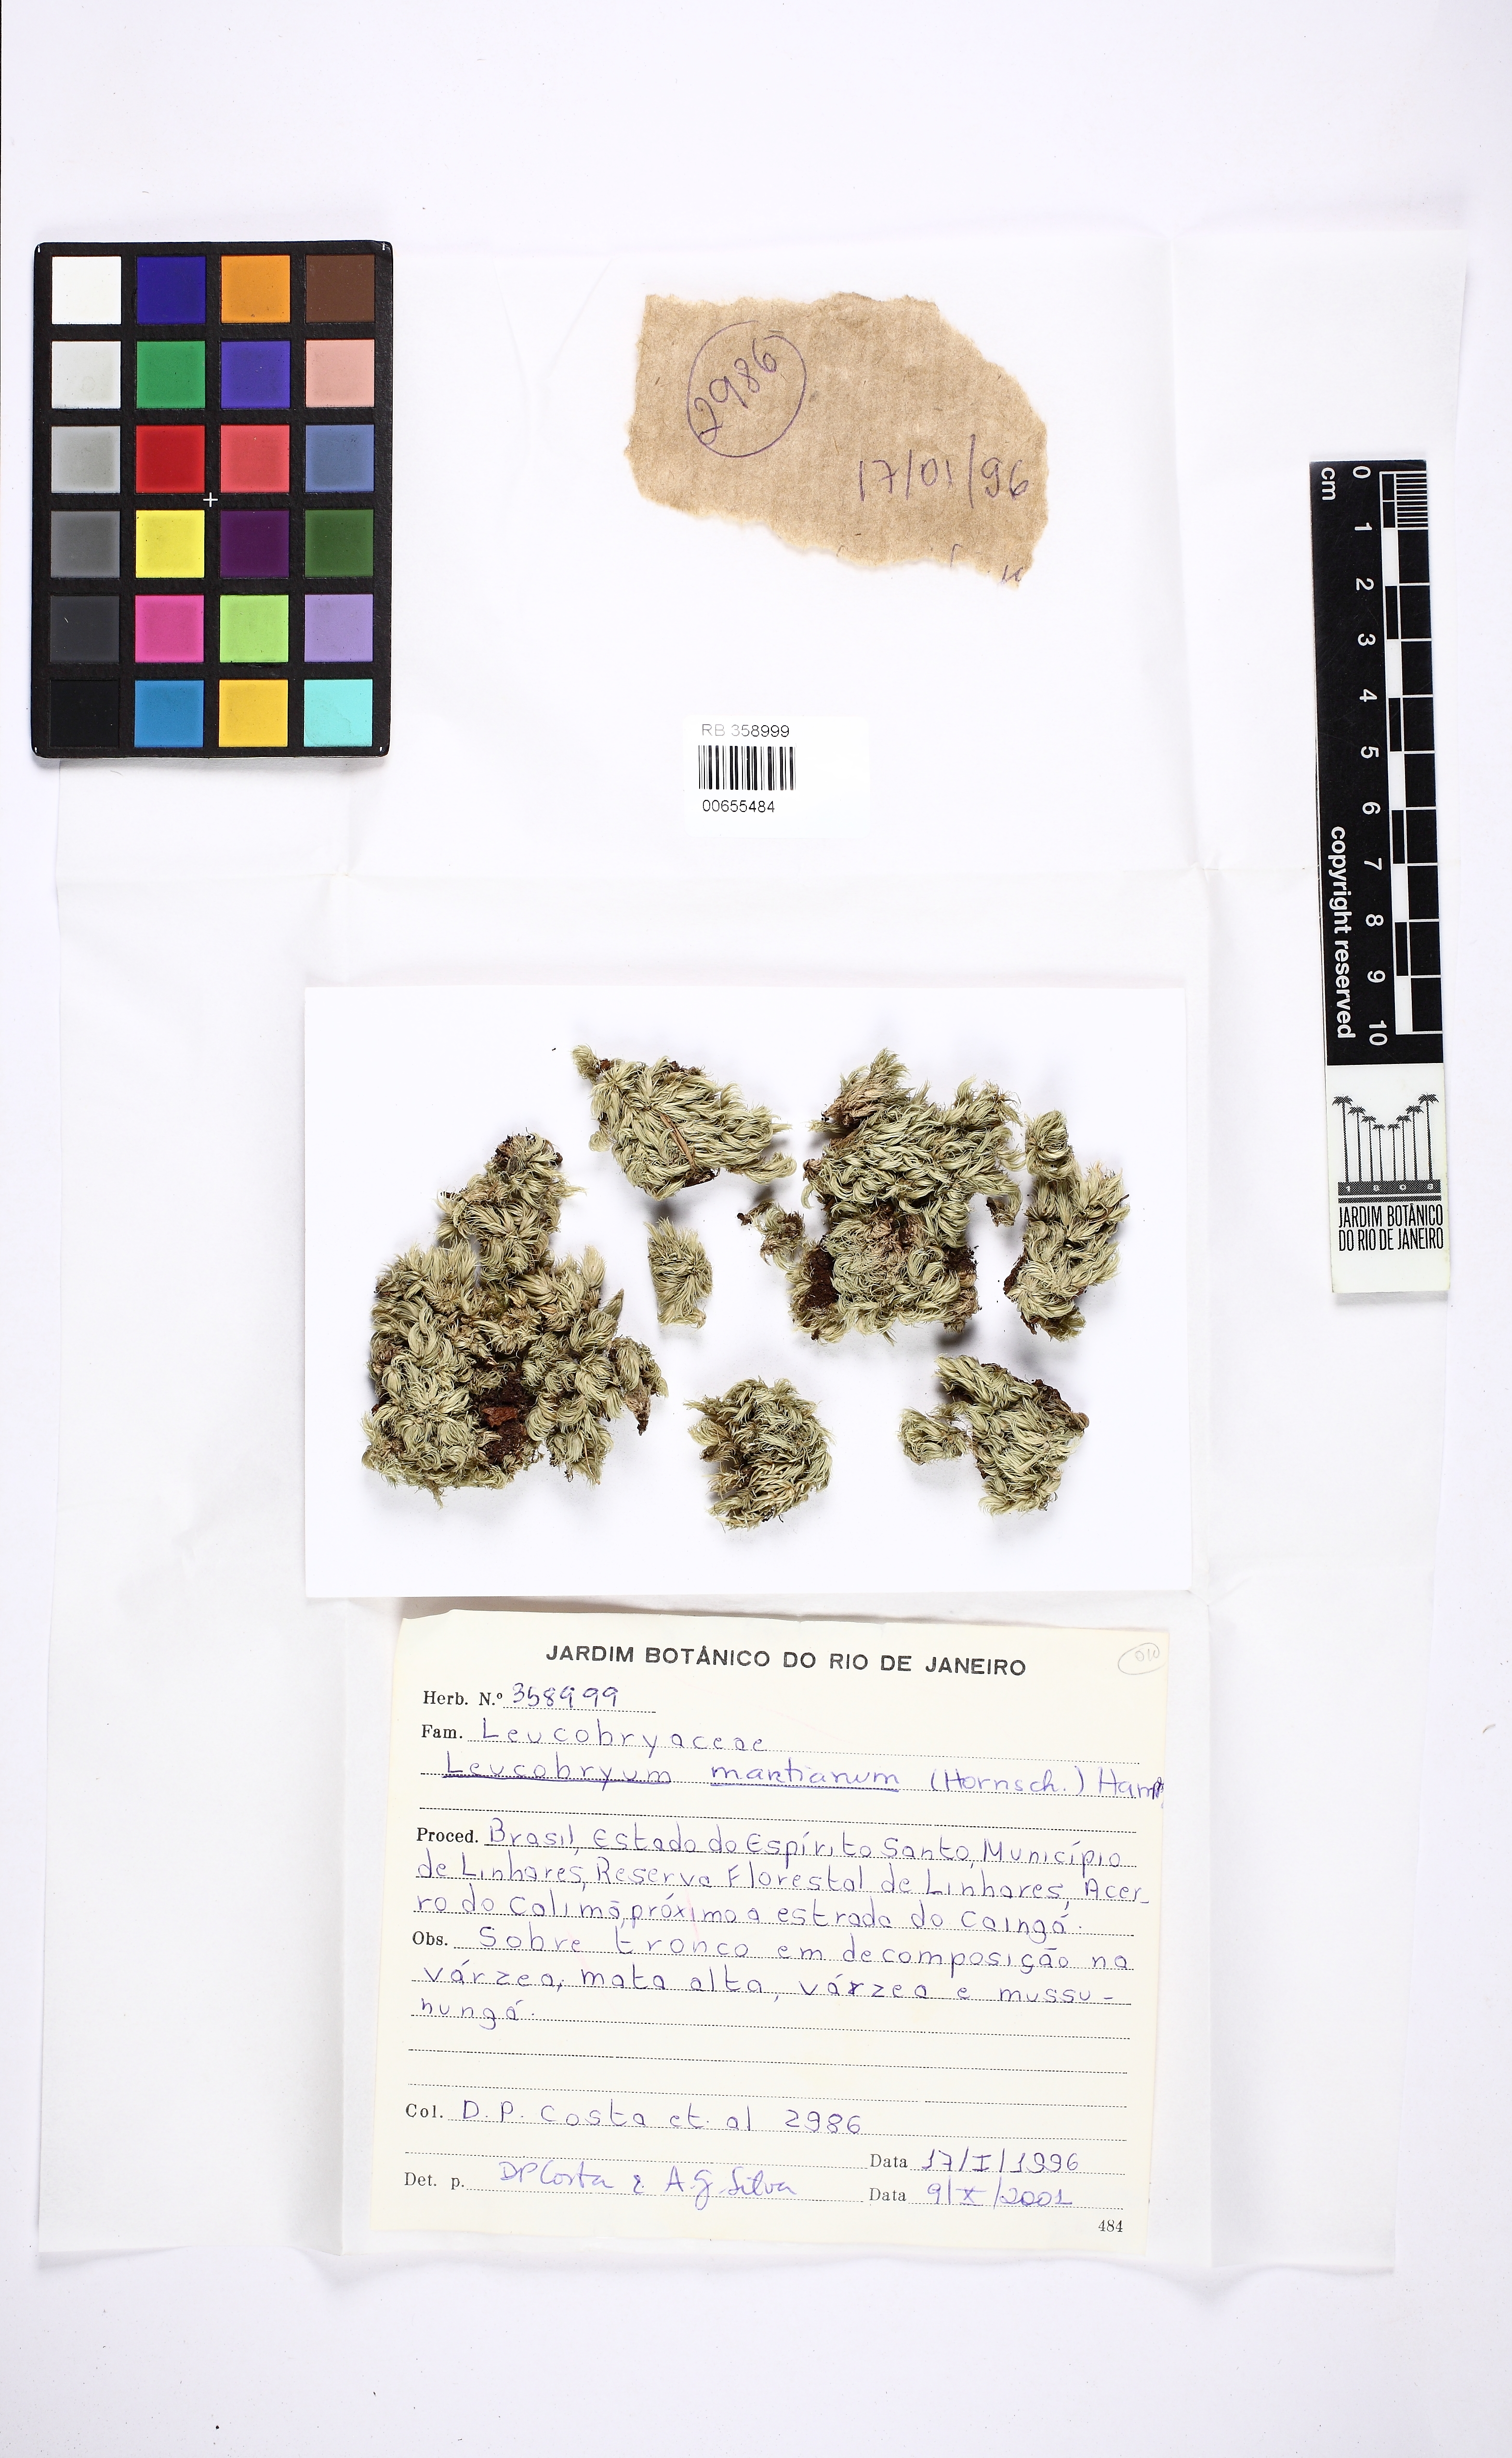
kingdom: Plantae
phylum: Bryophyta
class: Bryopsida
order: Dicranales
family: Leucobryaceae
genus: Leucobryum
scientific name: Leucobryum martianum
